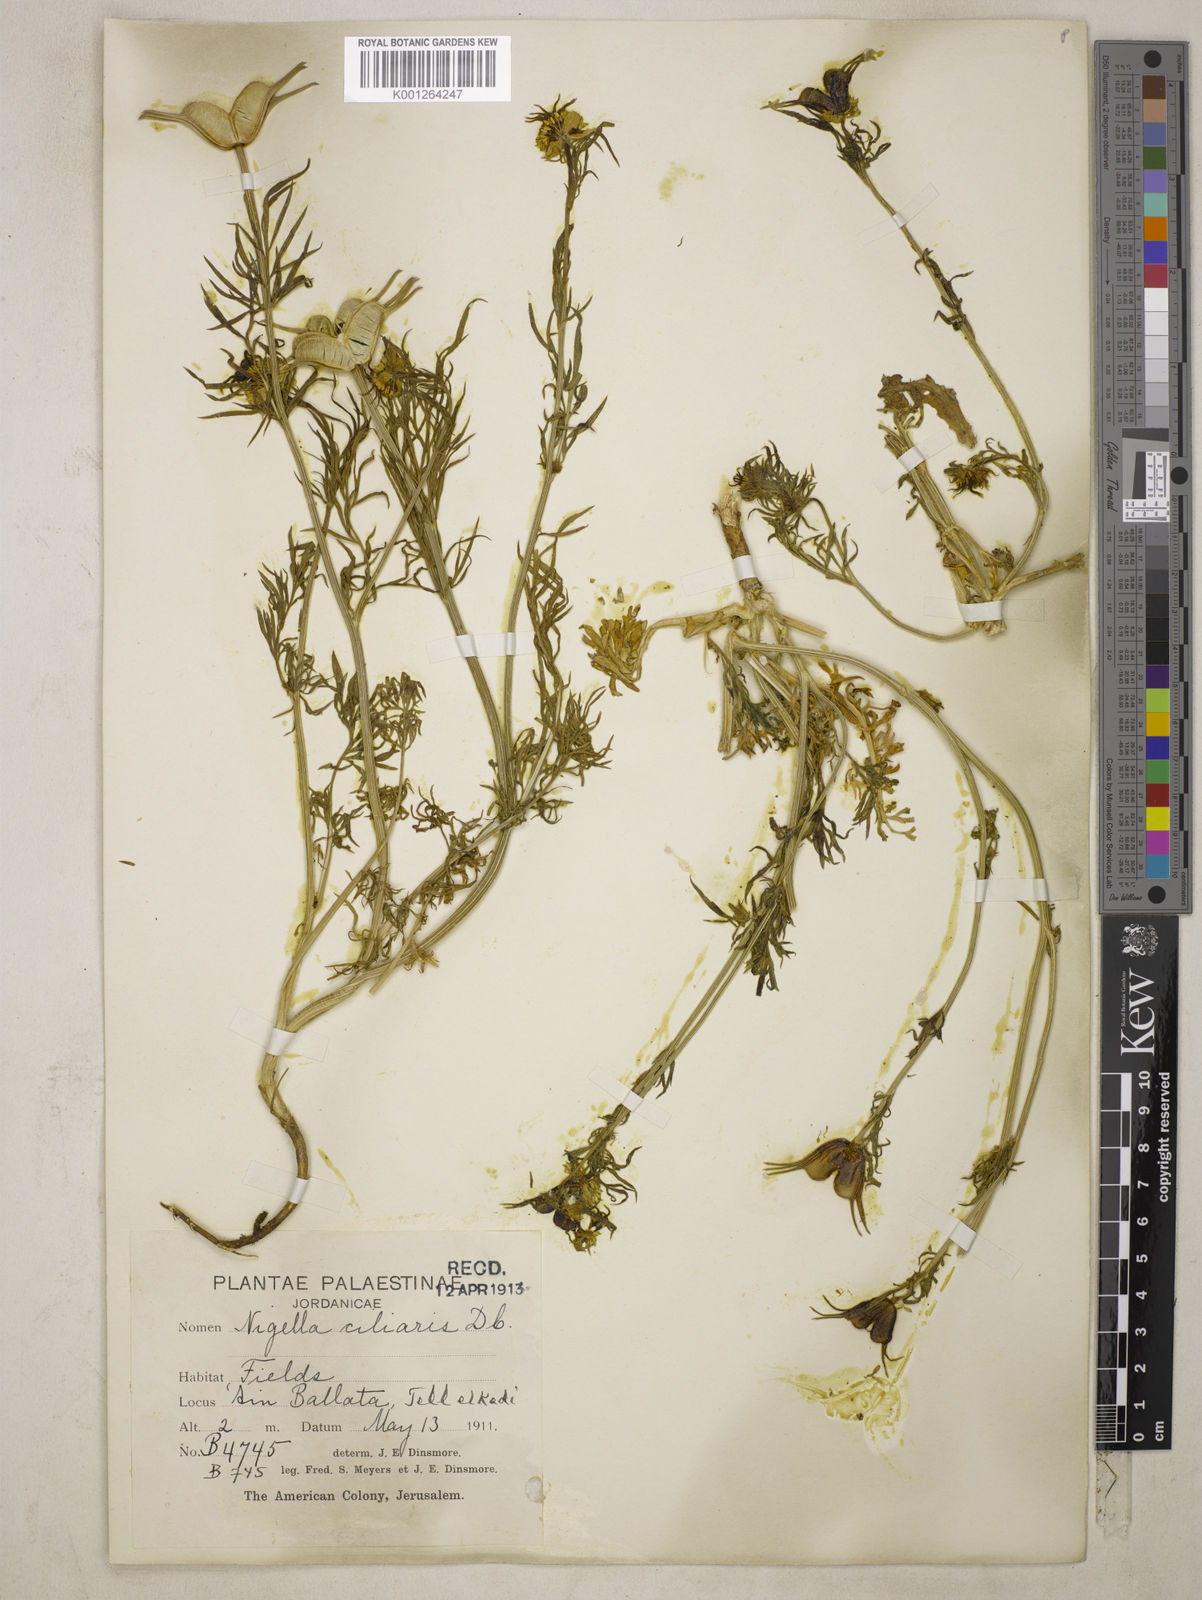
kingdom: Plantae
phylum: Tracheophyta
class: Magnoliopsida
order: Ranunculales
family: Ranunculaceae
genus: Nigella
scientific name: Nigella ciliaris
